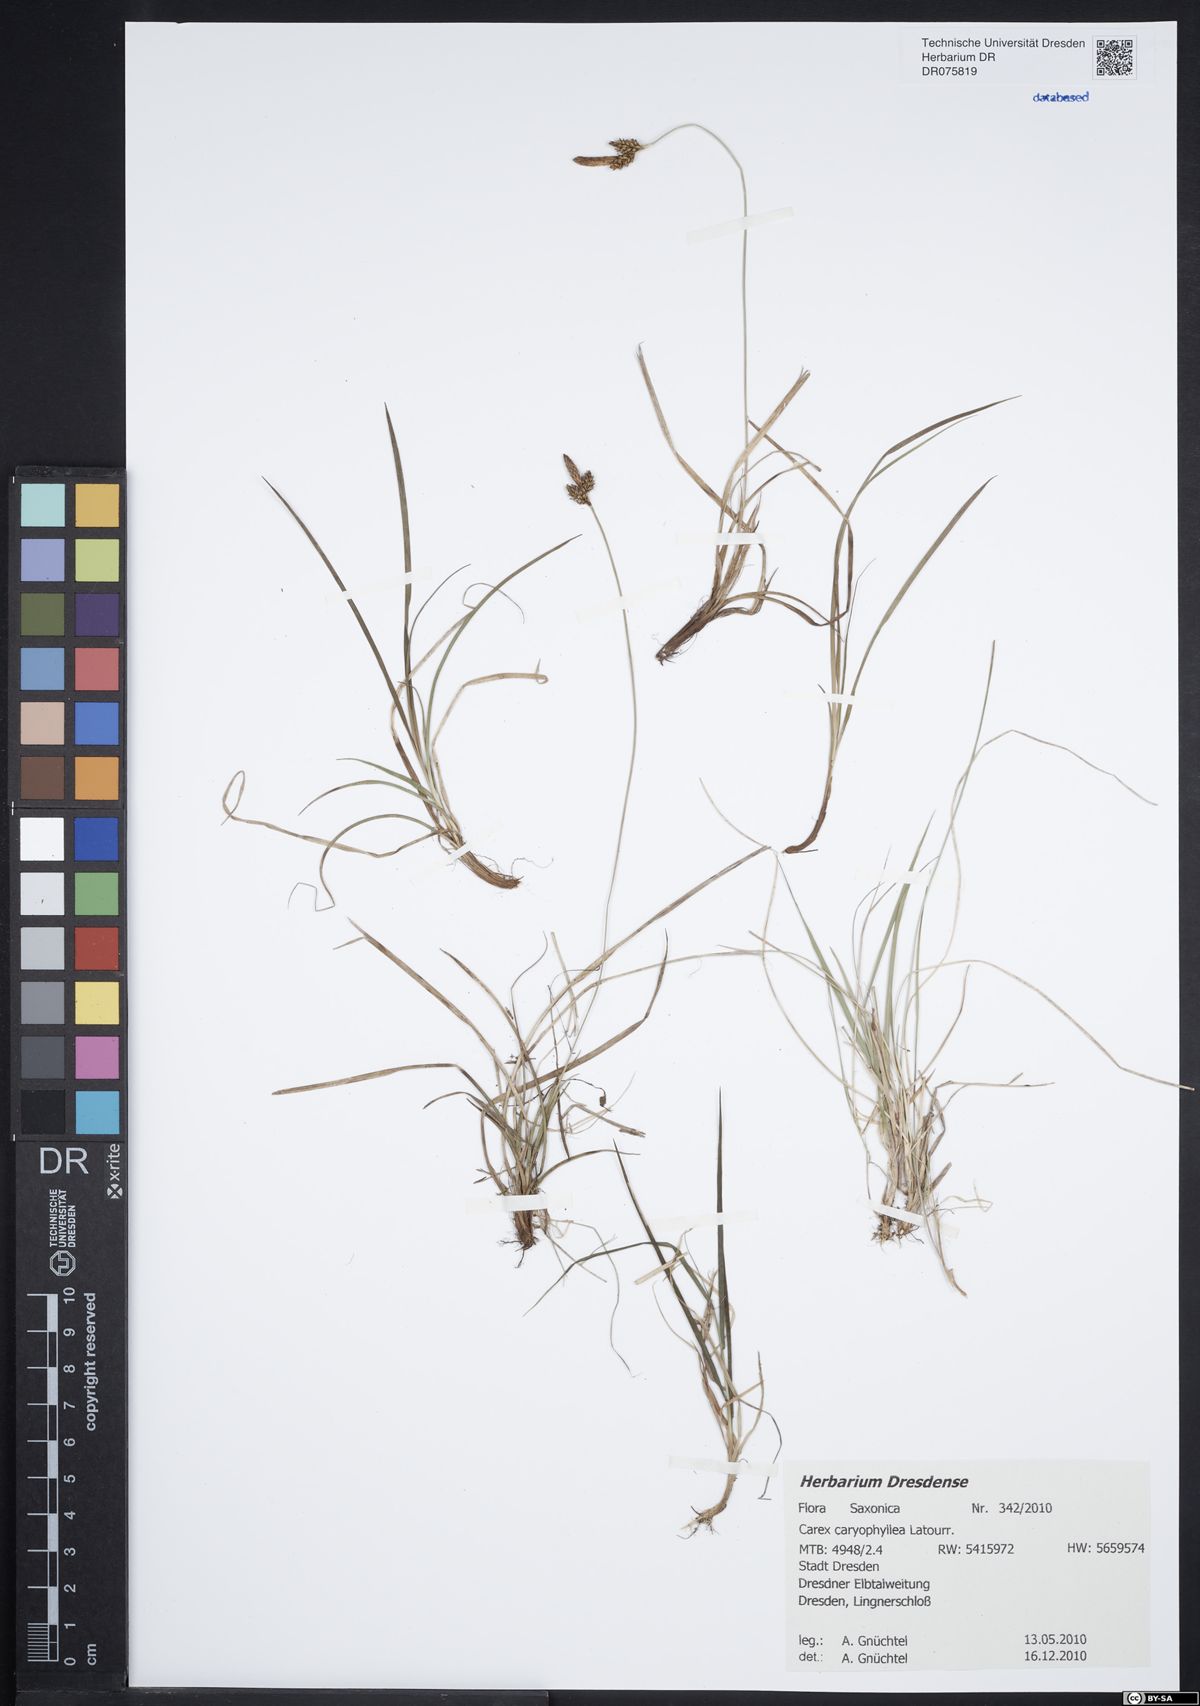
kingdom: Plantae
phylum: Tracheophyta
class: Liliopsida
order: Poales
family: Cyperaceae
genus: Carex
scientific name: Carex caryophyllea
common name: Spring sedge
